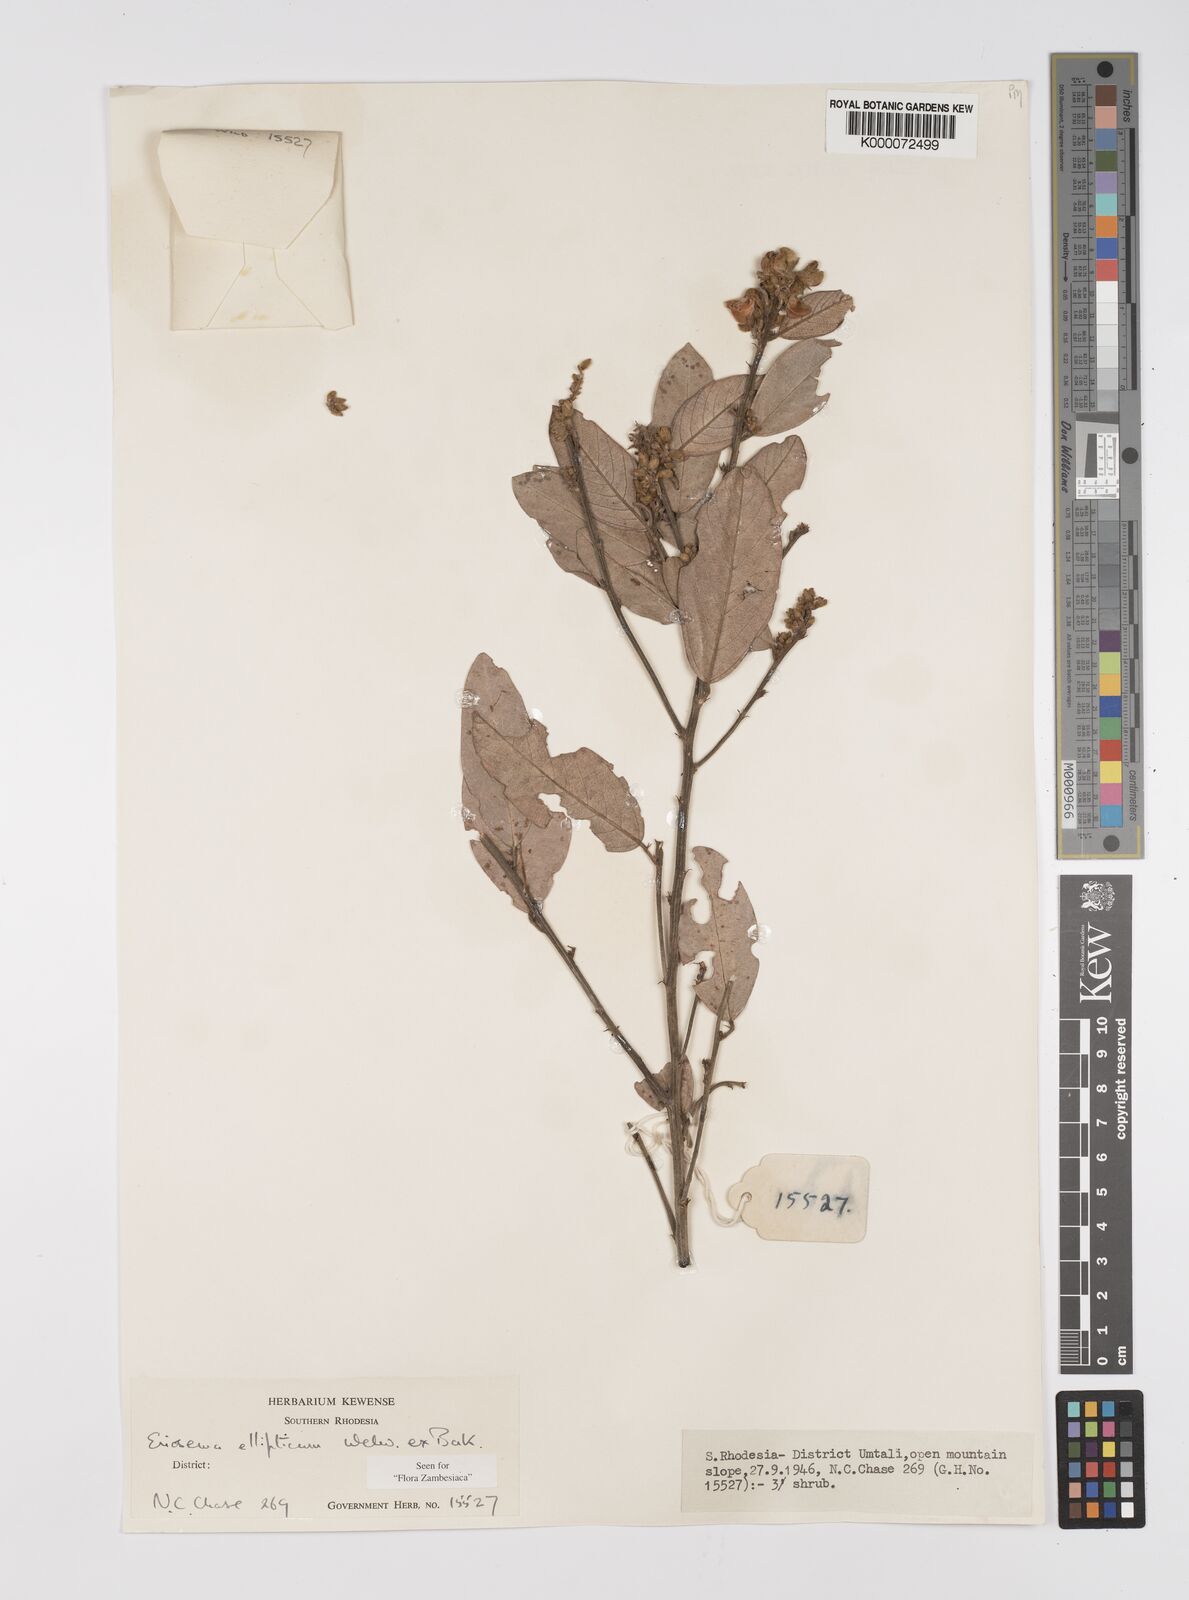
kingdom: Plantae
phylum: Tracheophyta
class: Magnoliopsida
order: Fabales
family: Fabaceae
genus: Eriosema
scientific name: Eriosema ellipticum
